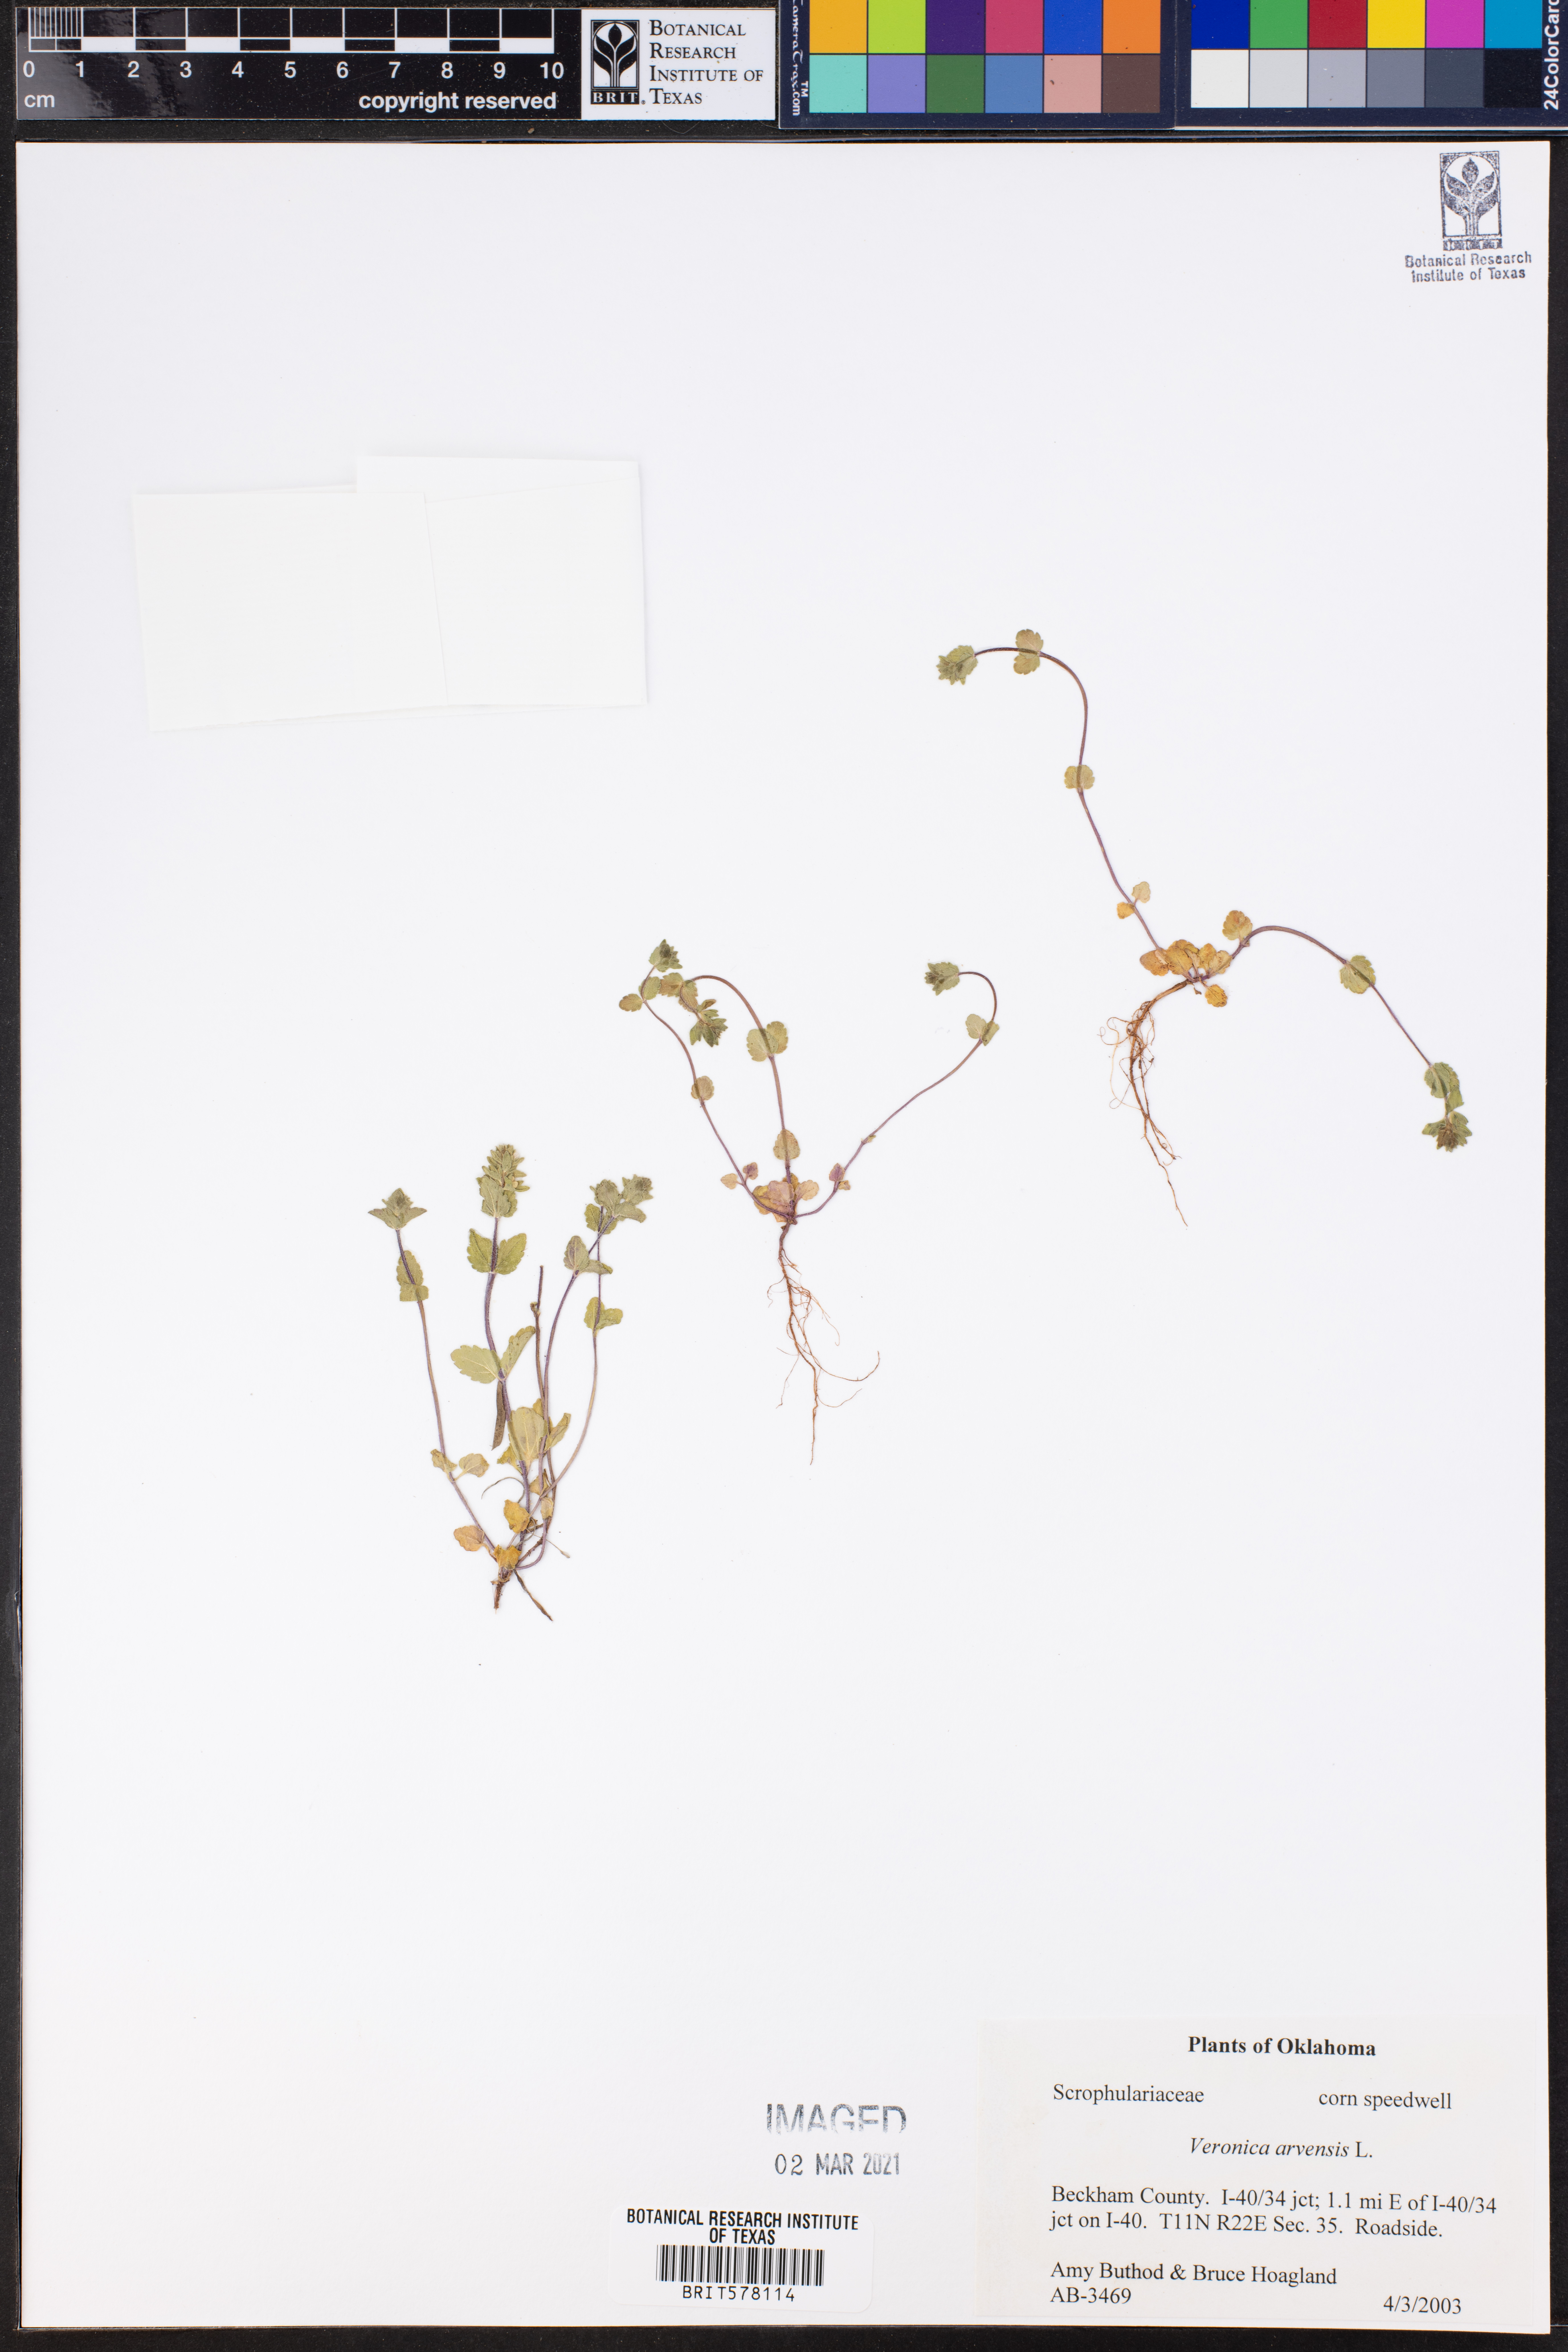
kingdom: Plantae
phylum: Tracheophyta
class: Magnoliopsida
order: Lamiales
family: Plantaginaceae
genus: Veronica
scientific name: Veronica arvensis
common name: Corn speedwell
